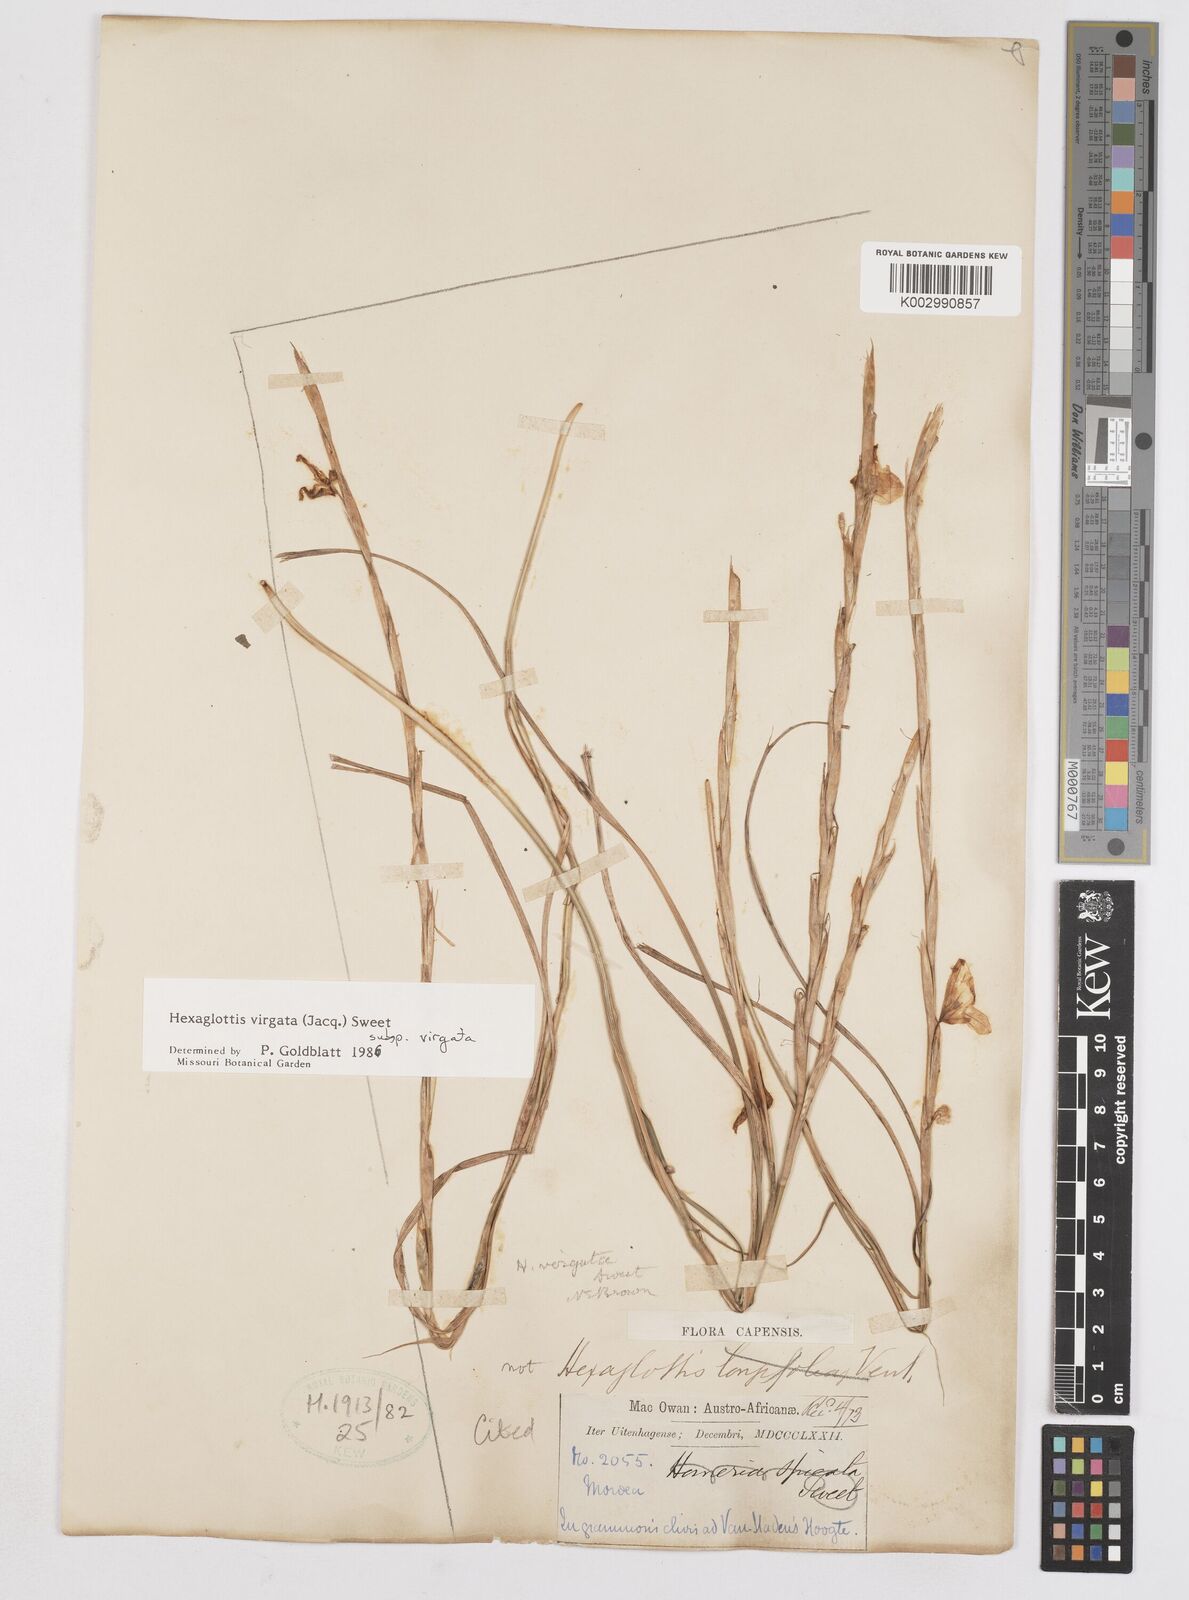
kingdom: Plantae
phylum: Tracheophyta
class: Liliopsida
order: Asparagales
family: Iridaceae
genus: Moraea
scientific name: Moraea virgata
